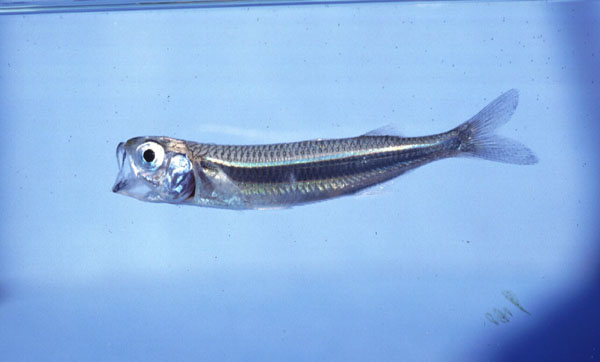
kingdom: Animalia
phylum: Chordata
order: Atheriniformes
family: Atherinidae
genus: Atherinomorus
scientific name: Atherinomorus lacunosus
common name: Hardyhead silverside
